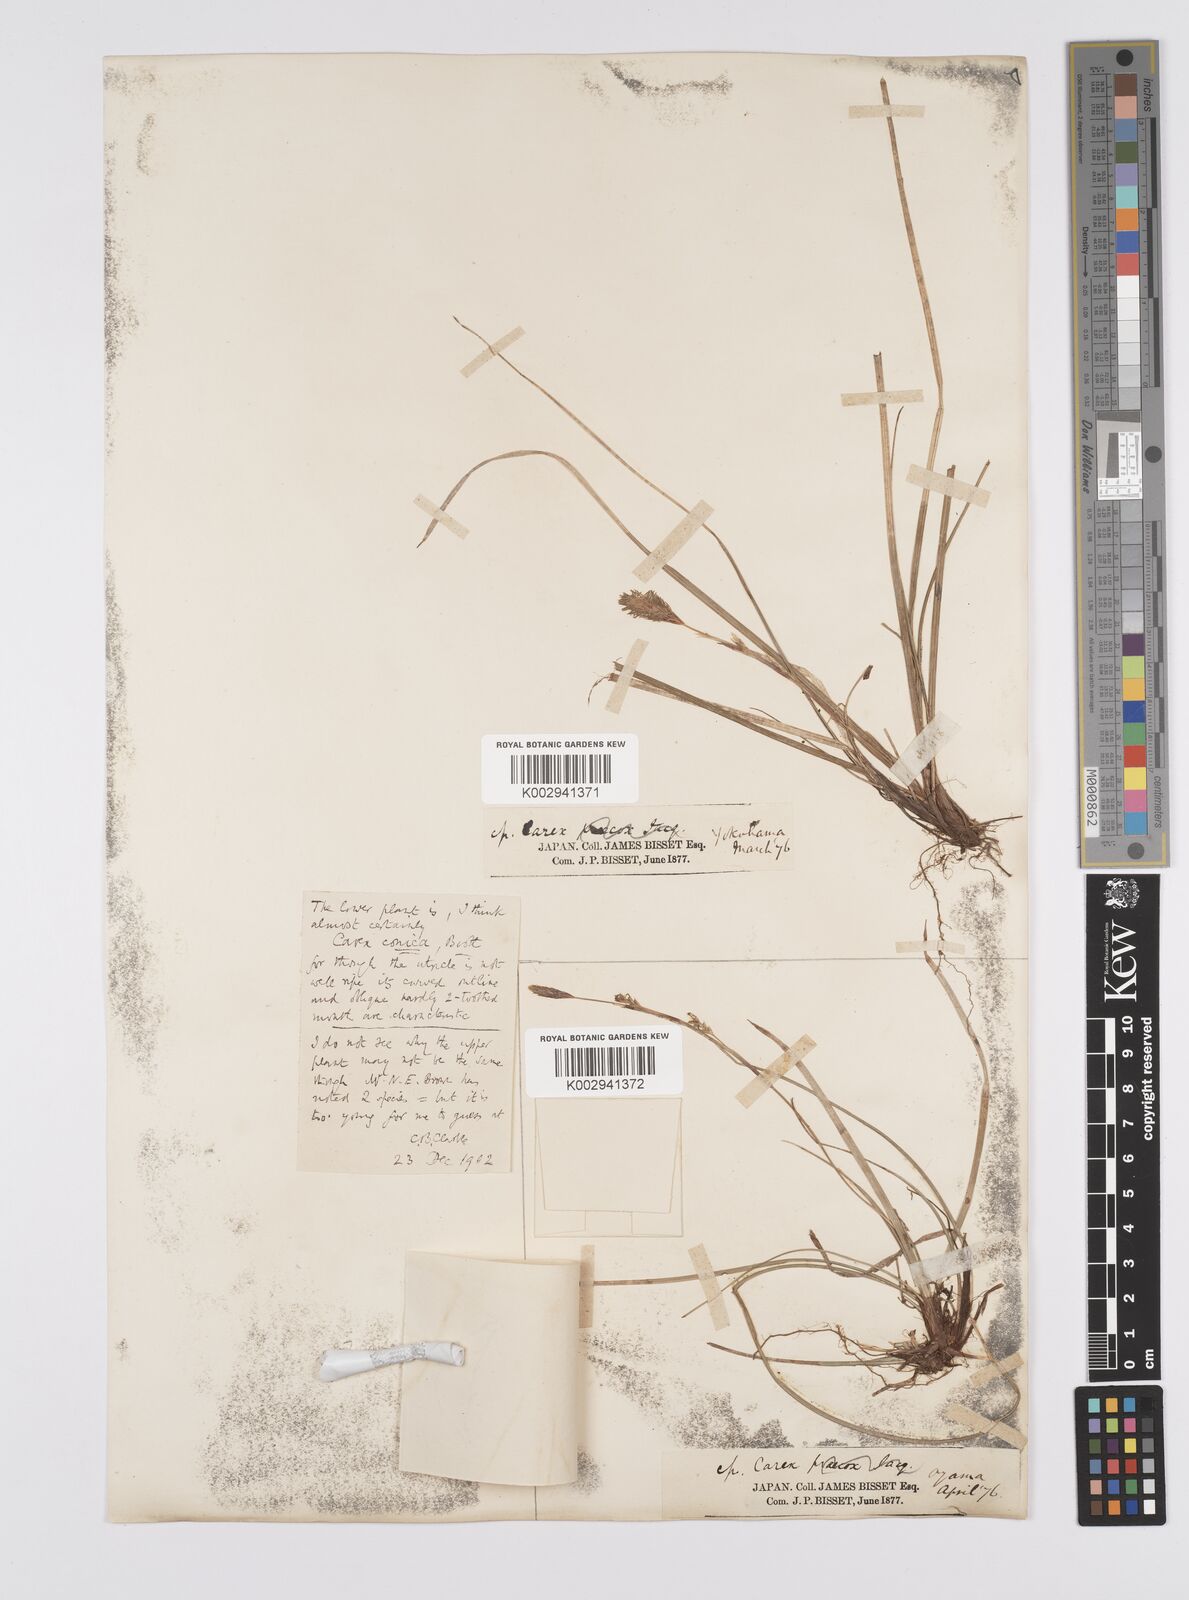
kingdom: Plantae
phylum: Tracheophyta
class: Liliopsida
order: Poales
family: Cyperaceae
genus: Carex
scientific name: Carex conica
